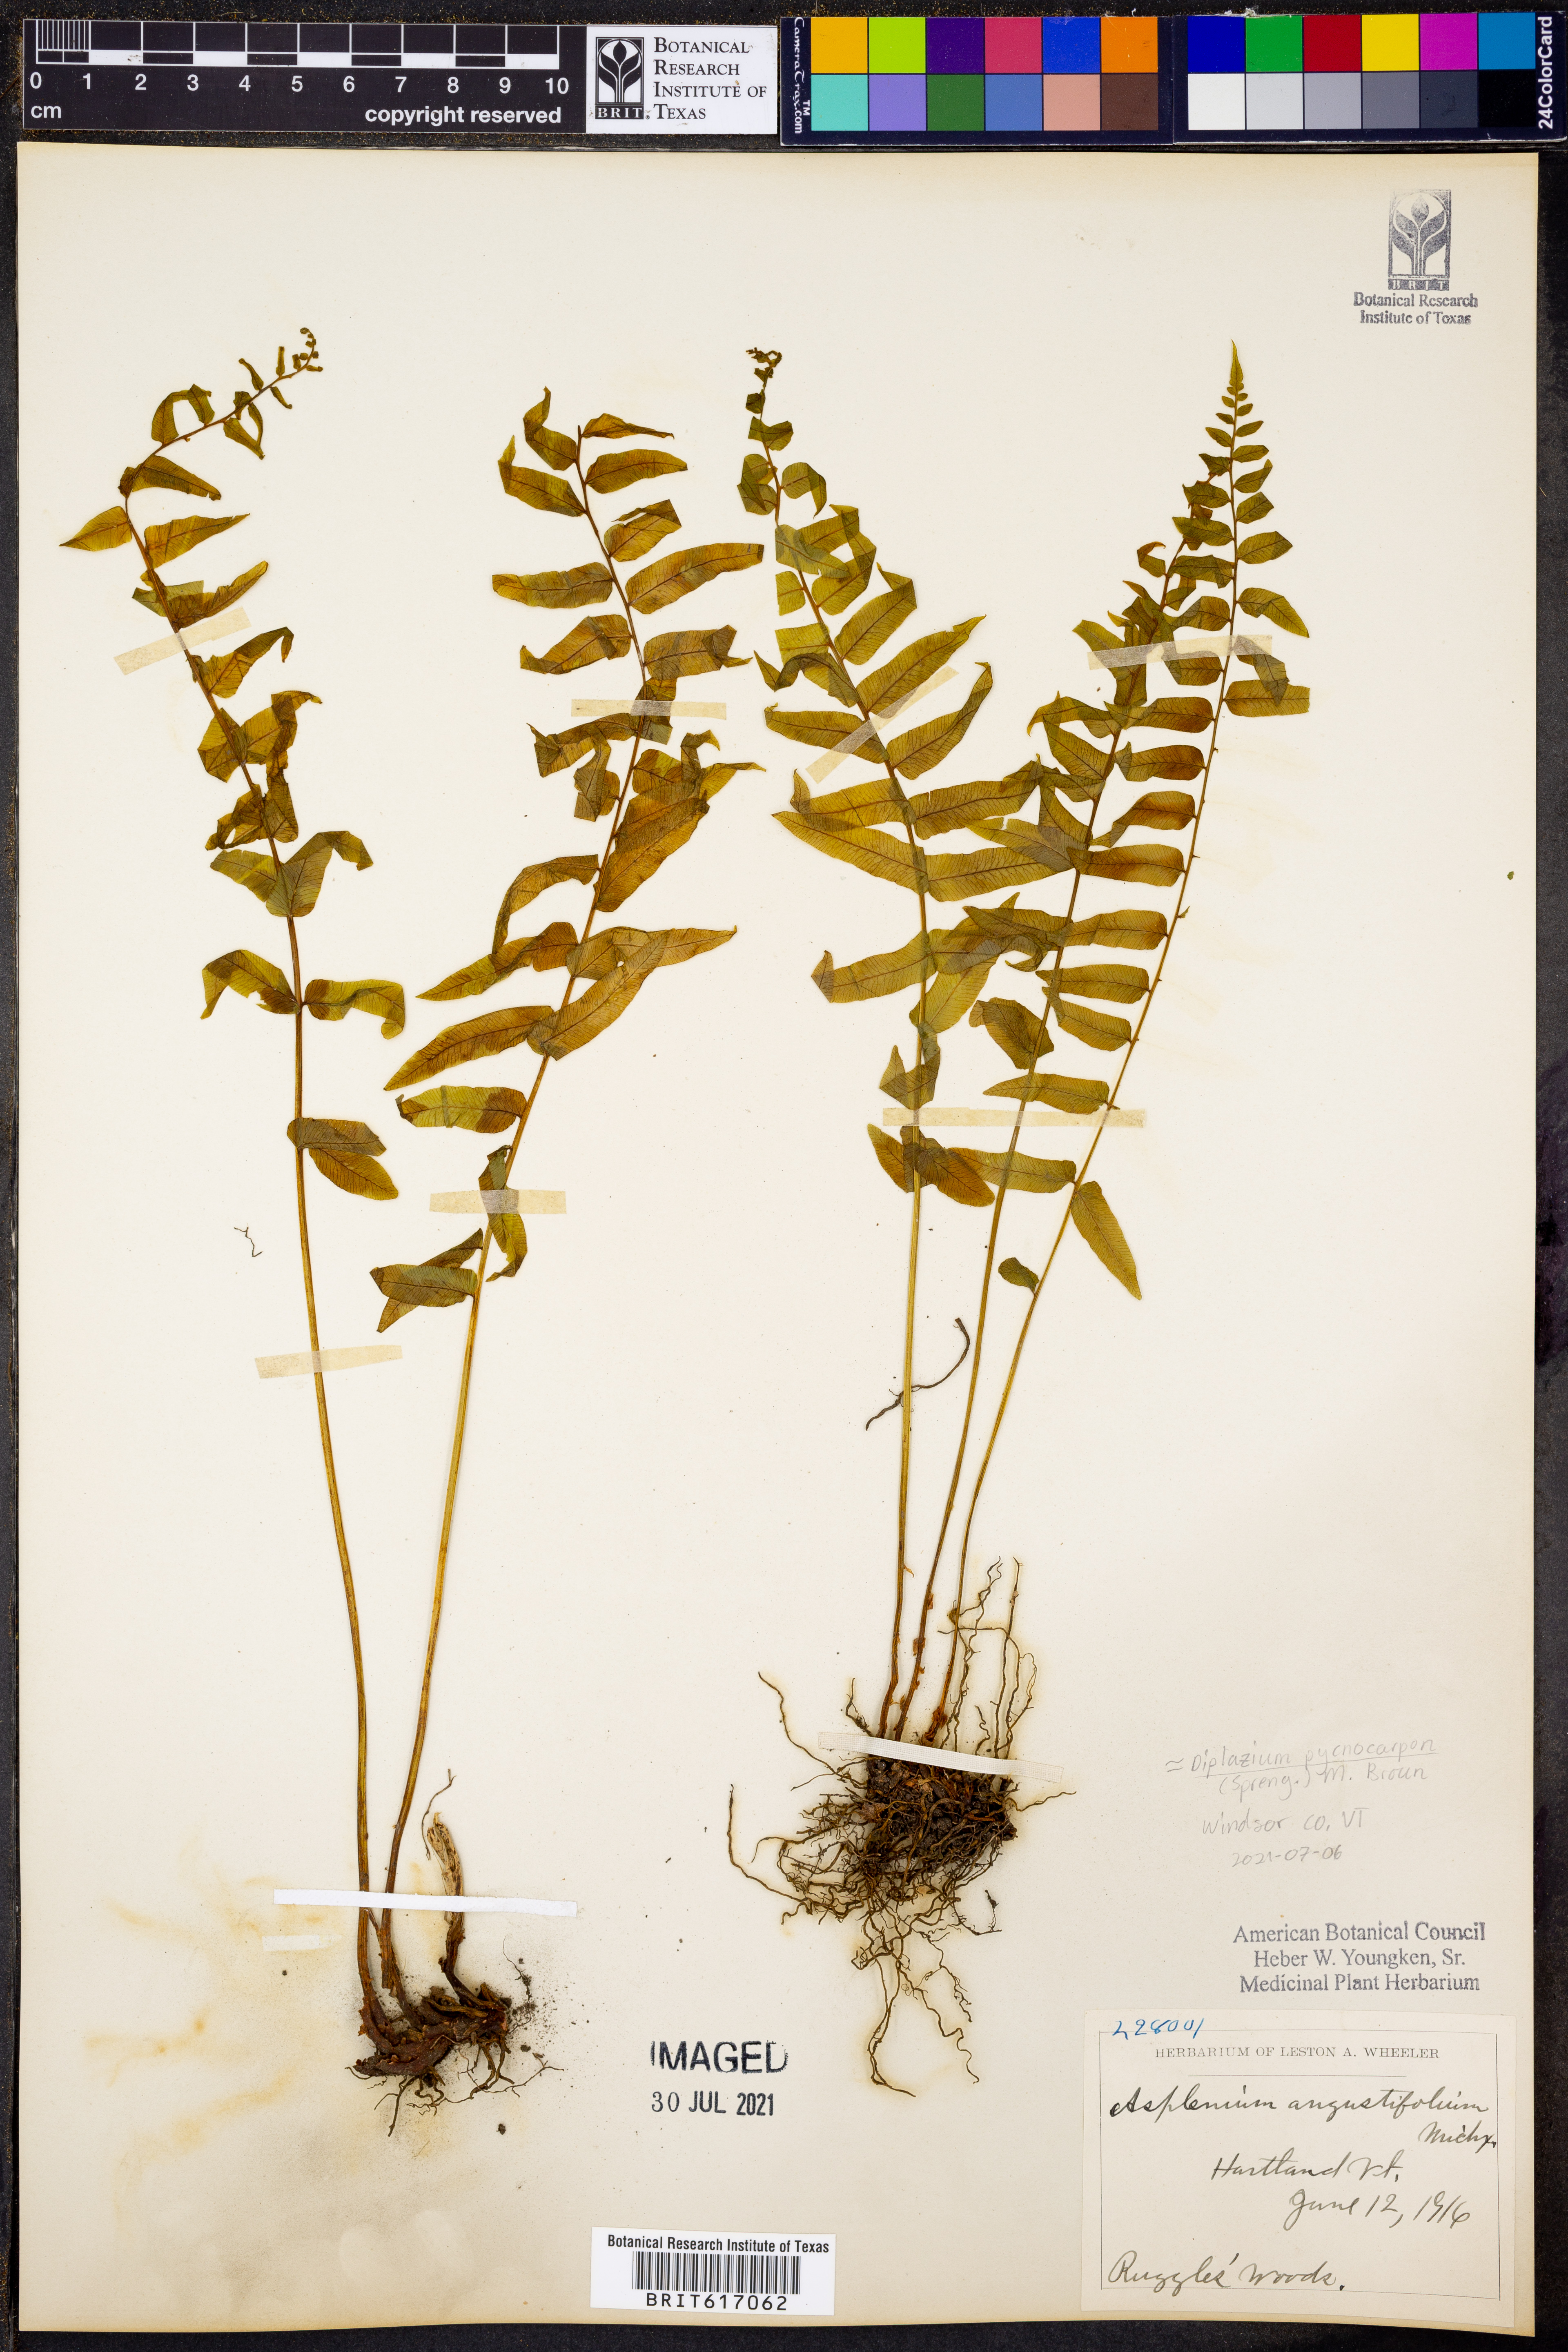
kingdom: Plantae
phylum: Tracheophyta
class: Polypodiopsida
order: Polypodiales
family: Diplaziopsidaceae
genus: Homalosorus
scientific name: Homalosorus pycnocarpos
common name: Glade fern
